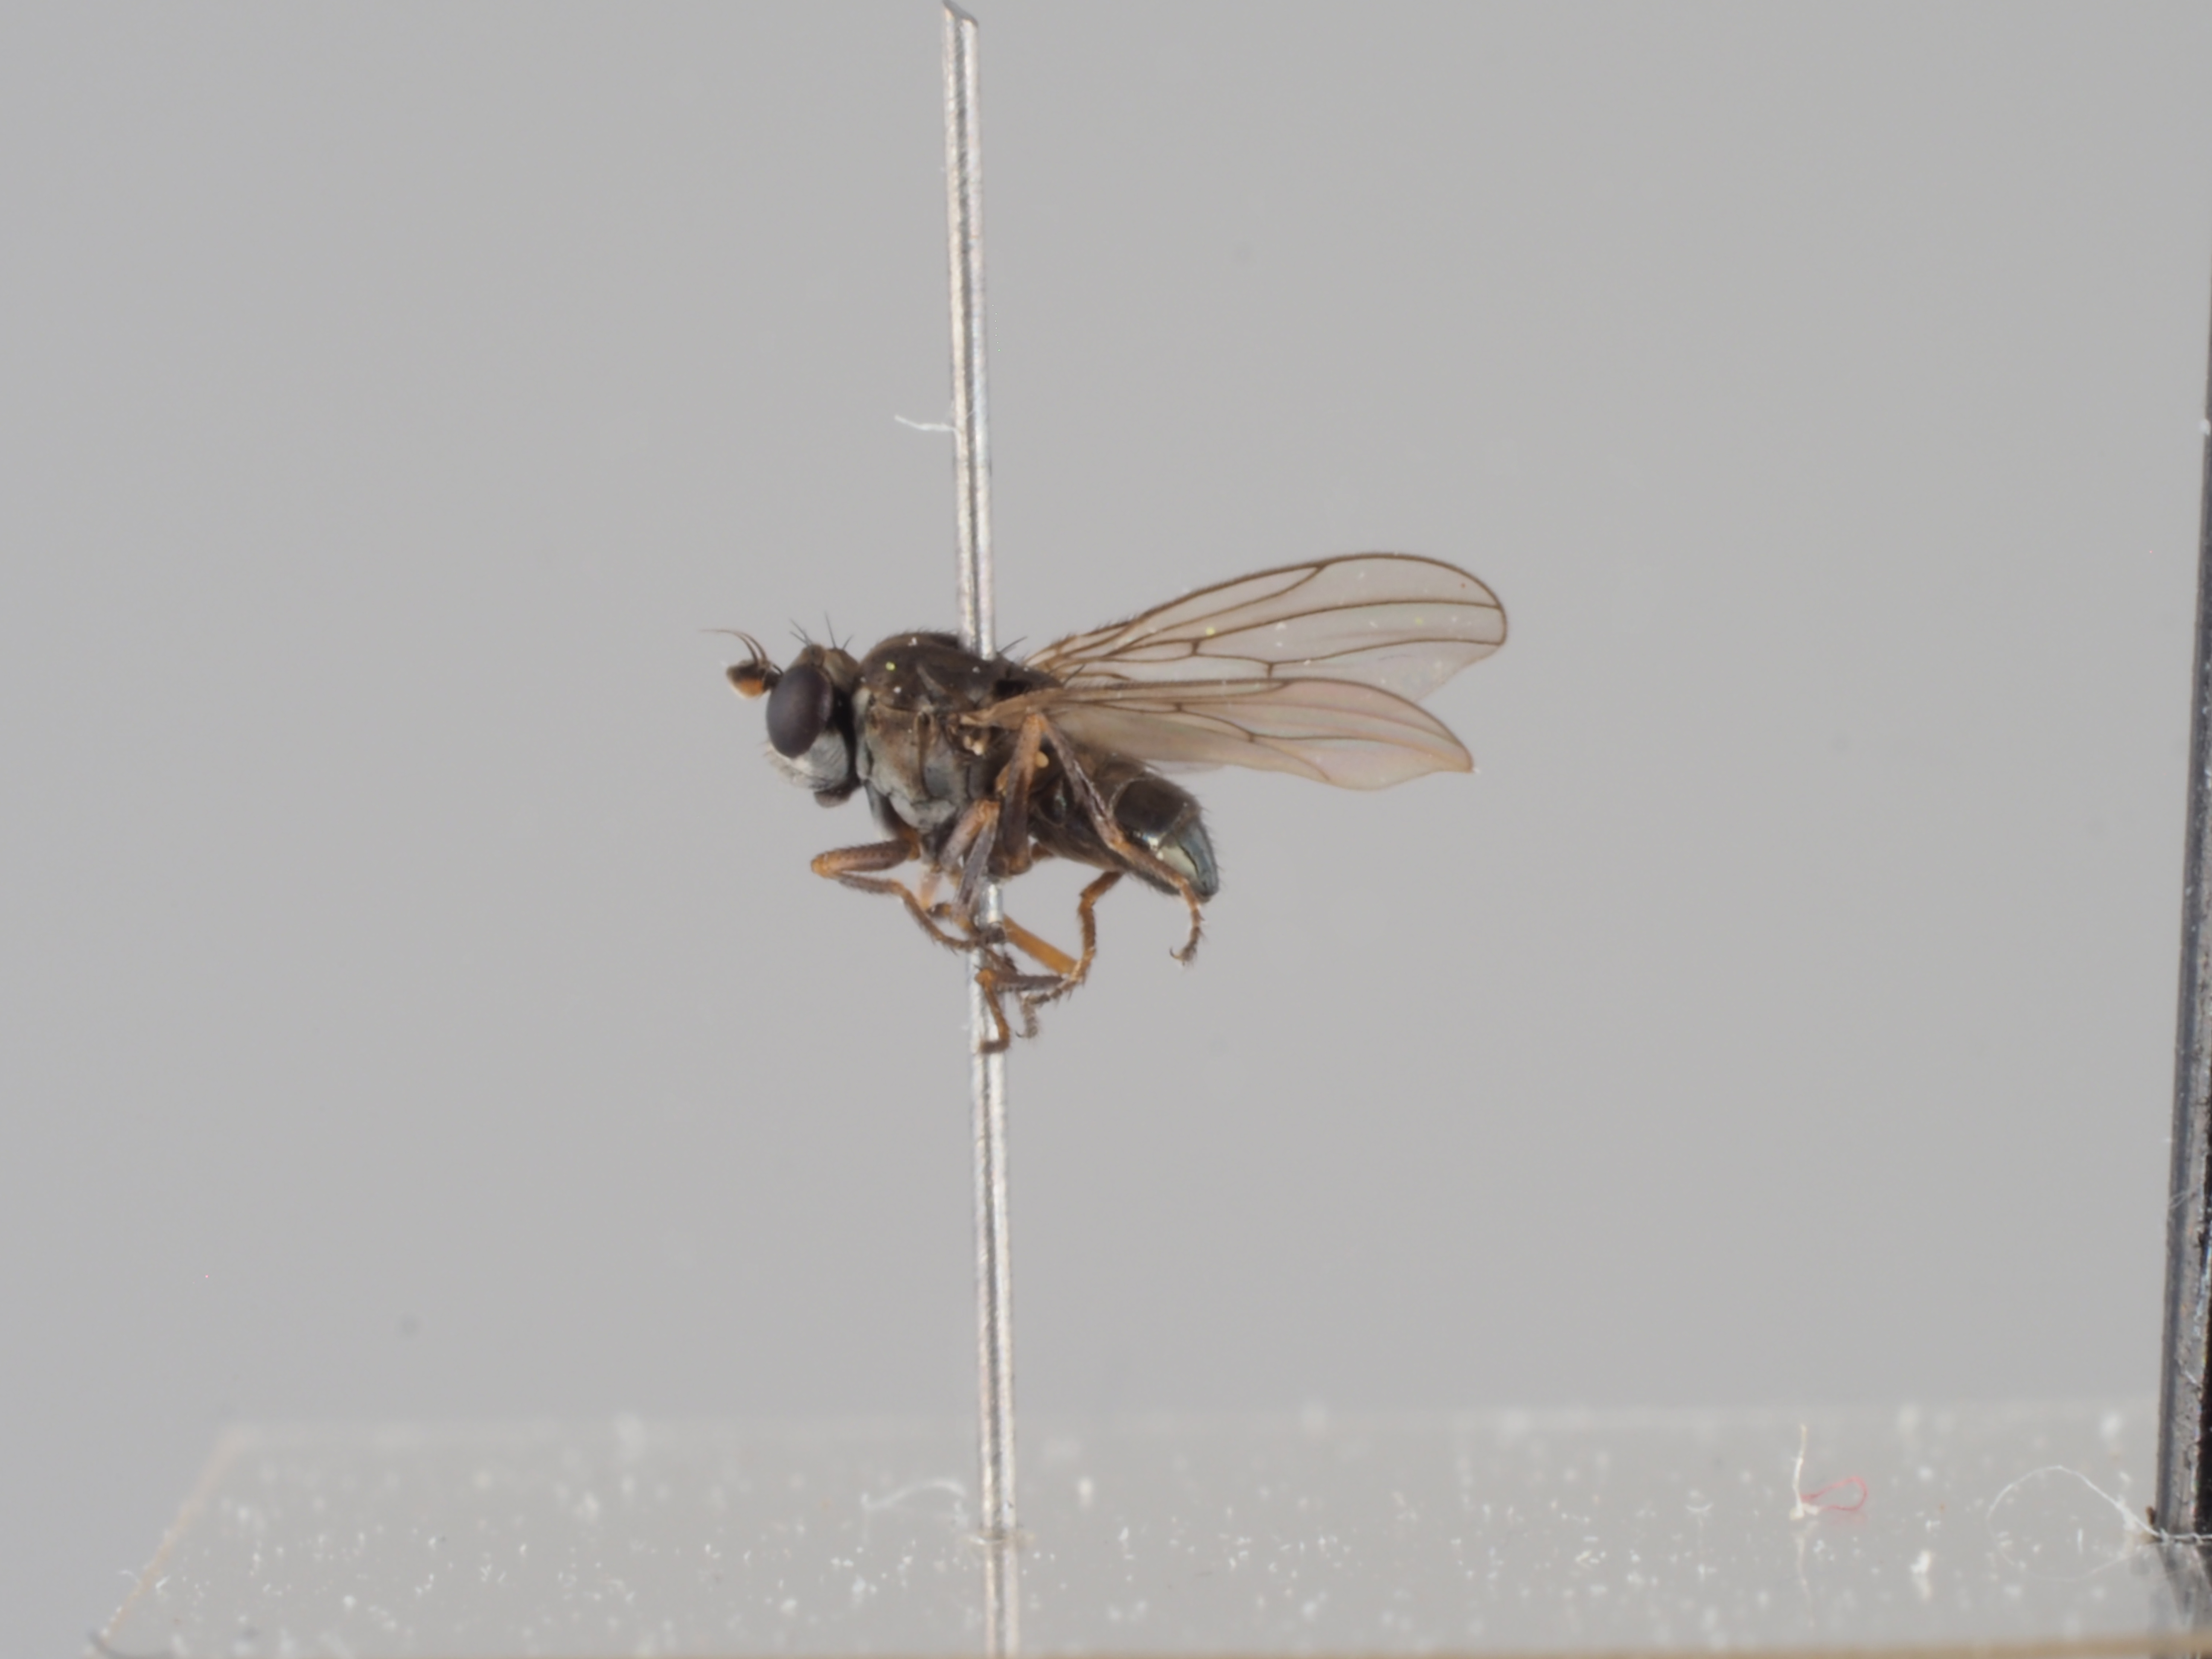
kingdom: Animalia
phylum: Arthropoda
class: Insecta
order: Diptera
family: Ephydridae
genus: Hyadina
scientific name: Hyadina rufipes
